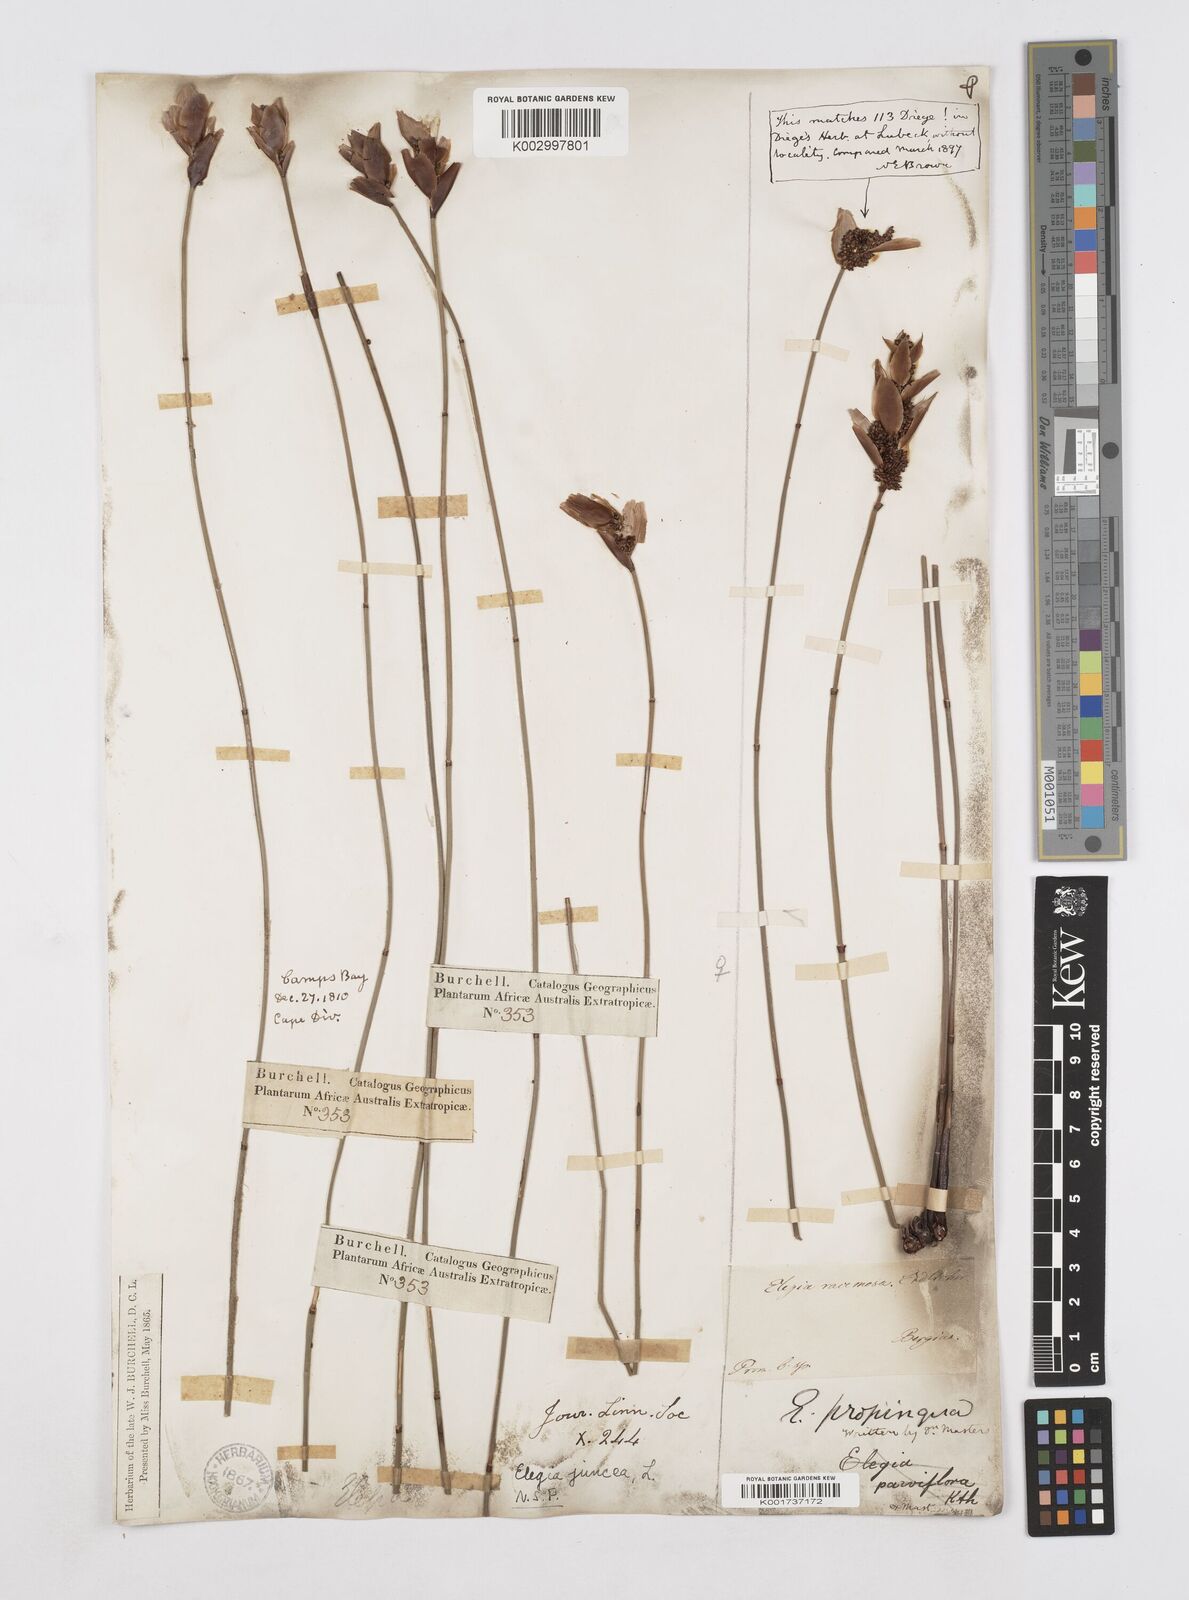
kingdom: Plantae
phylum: Tracheophyta
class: Liliopsida
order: Poales
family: Restionaceae
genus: Elegia
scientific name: Elegia juncea
